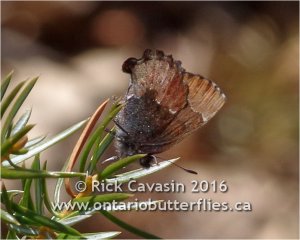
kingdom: Animalia
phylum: Arthropoda
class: Insecta
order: Lepidoptera
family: Lycaenidae
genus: Incisalia
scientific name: Incisalia henrici
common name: Henry's Elfin
